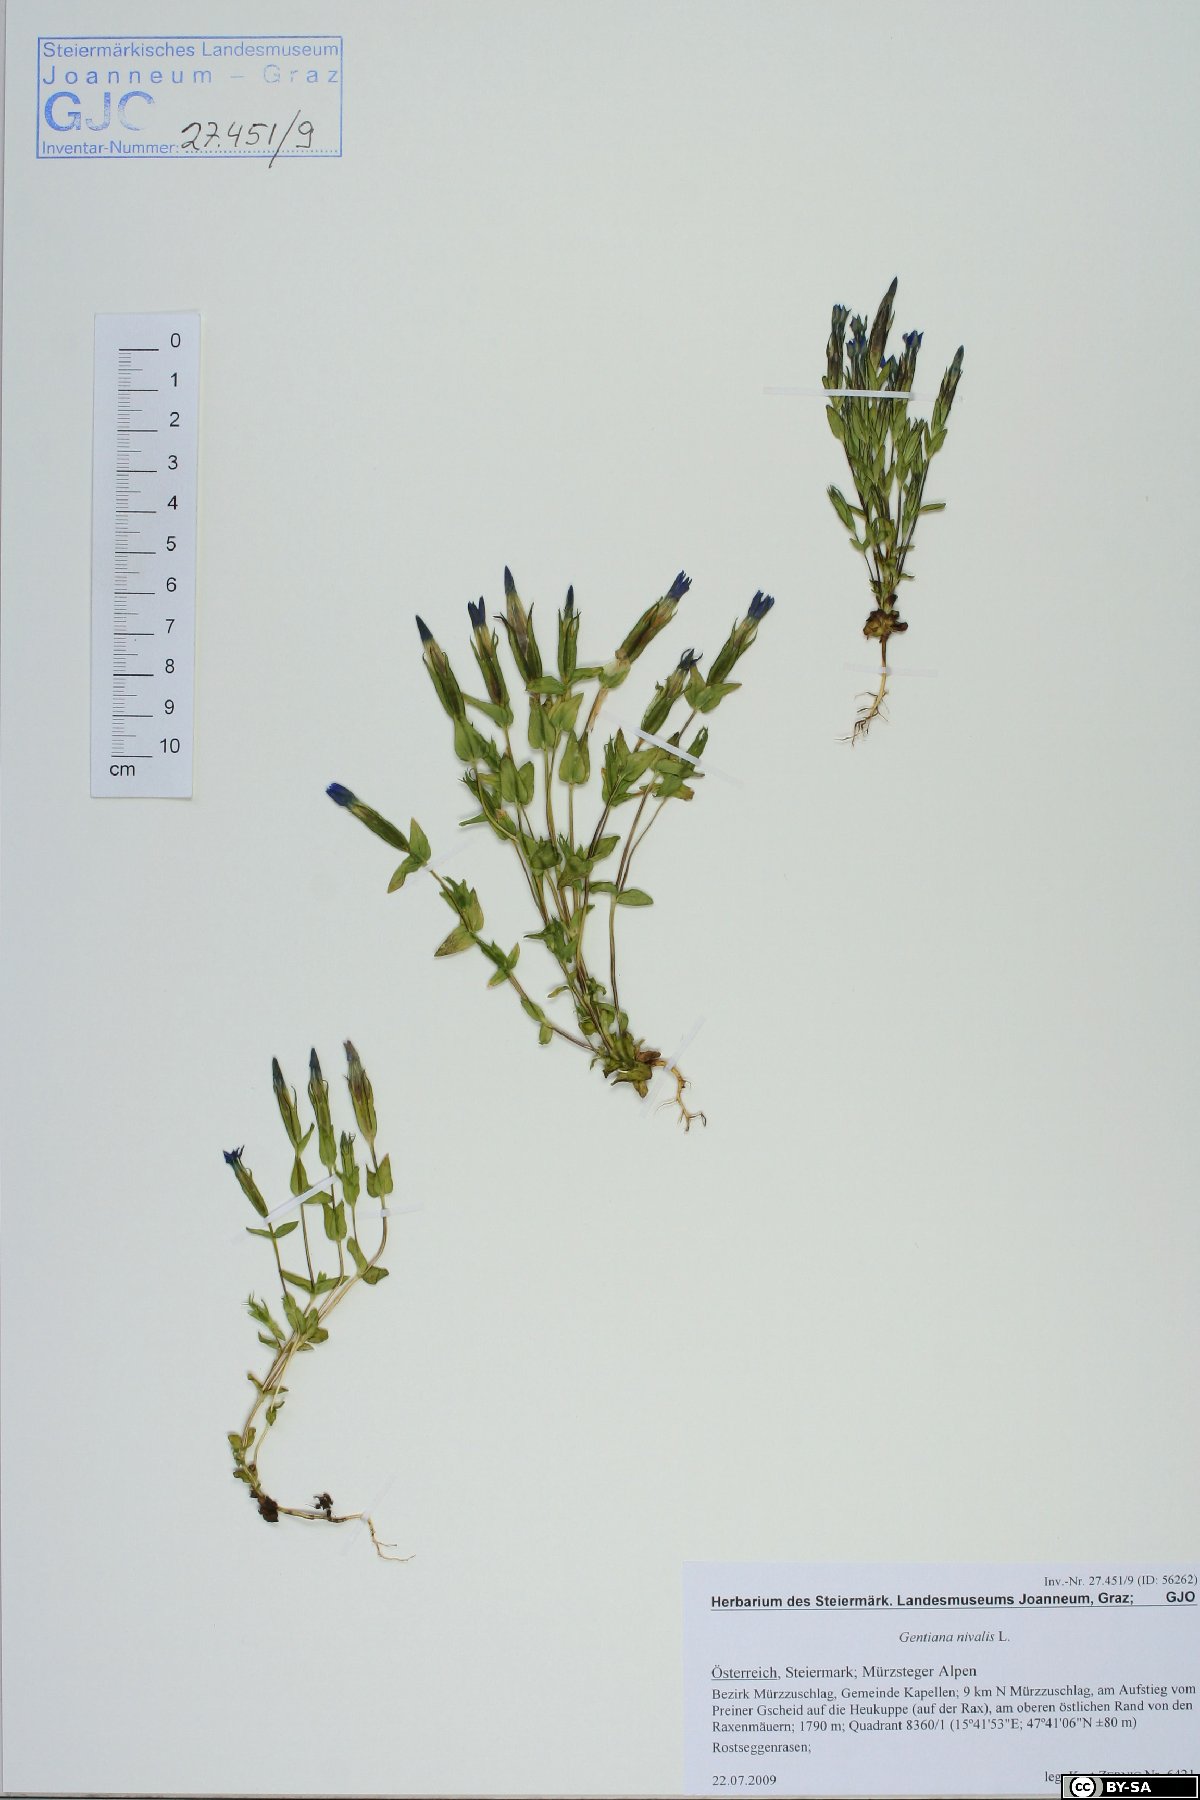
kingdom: Plantae
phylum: Tracheophyta
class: Magnoliopsida
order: Gentianales
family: Gentianaceae
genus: Gentiana
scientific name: Gentiana nivalis
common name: Alpine gentian
